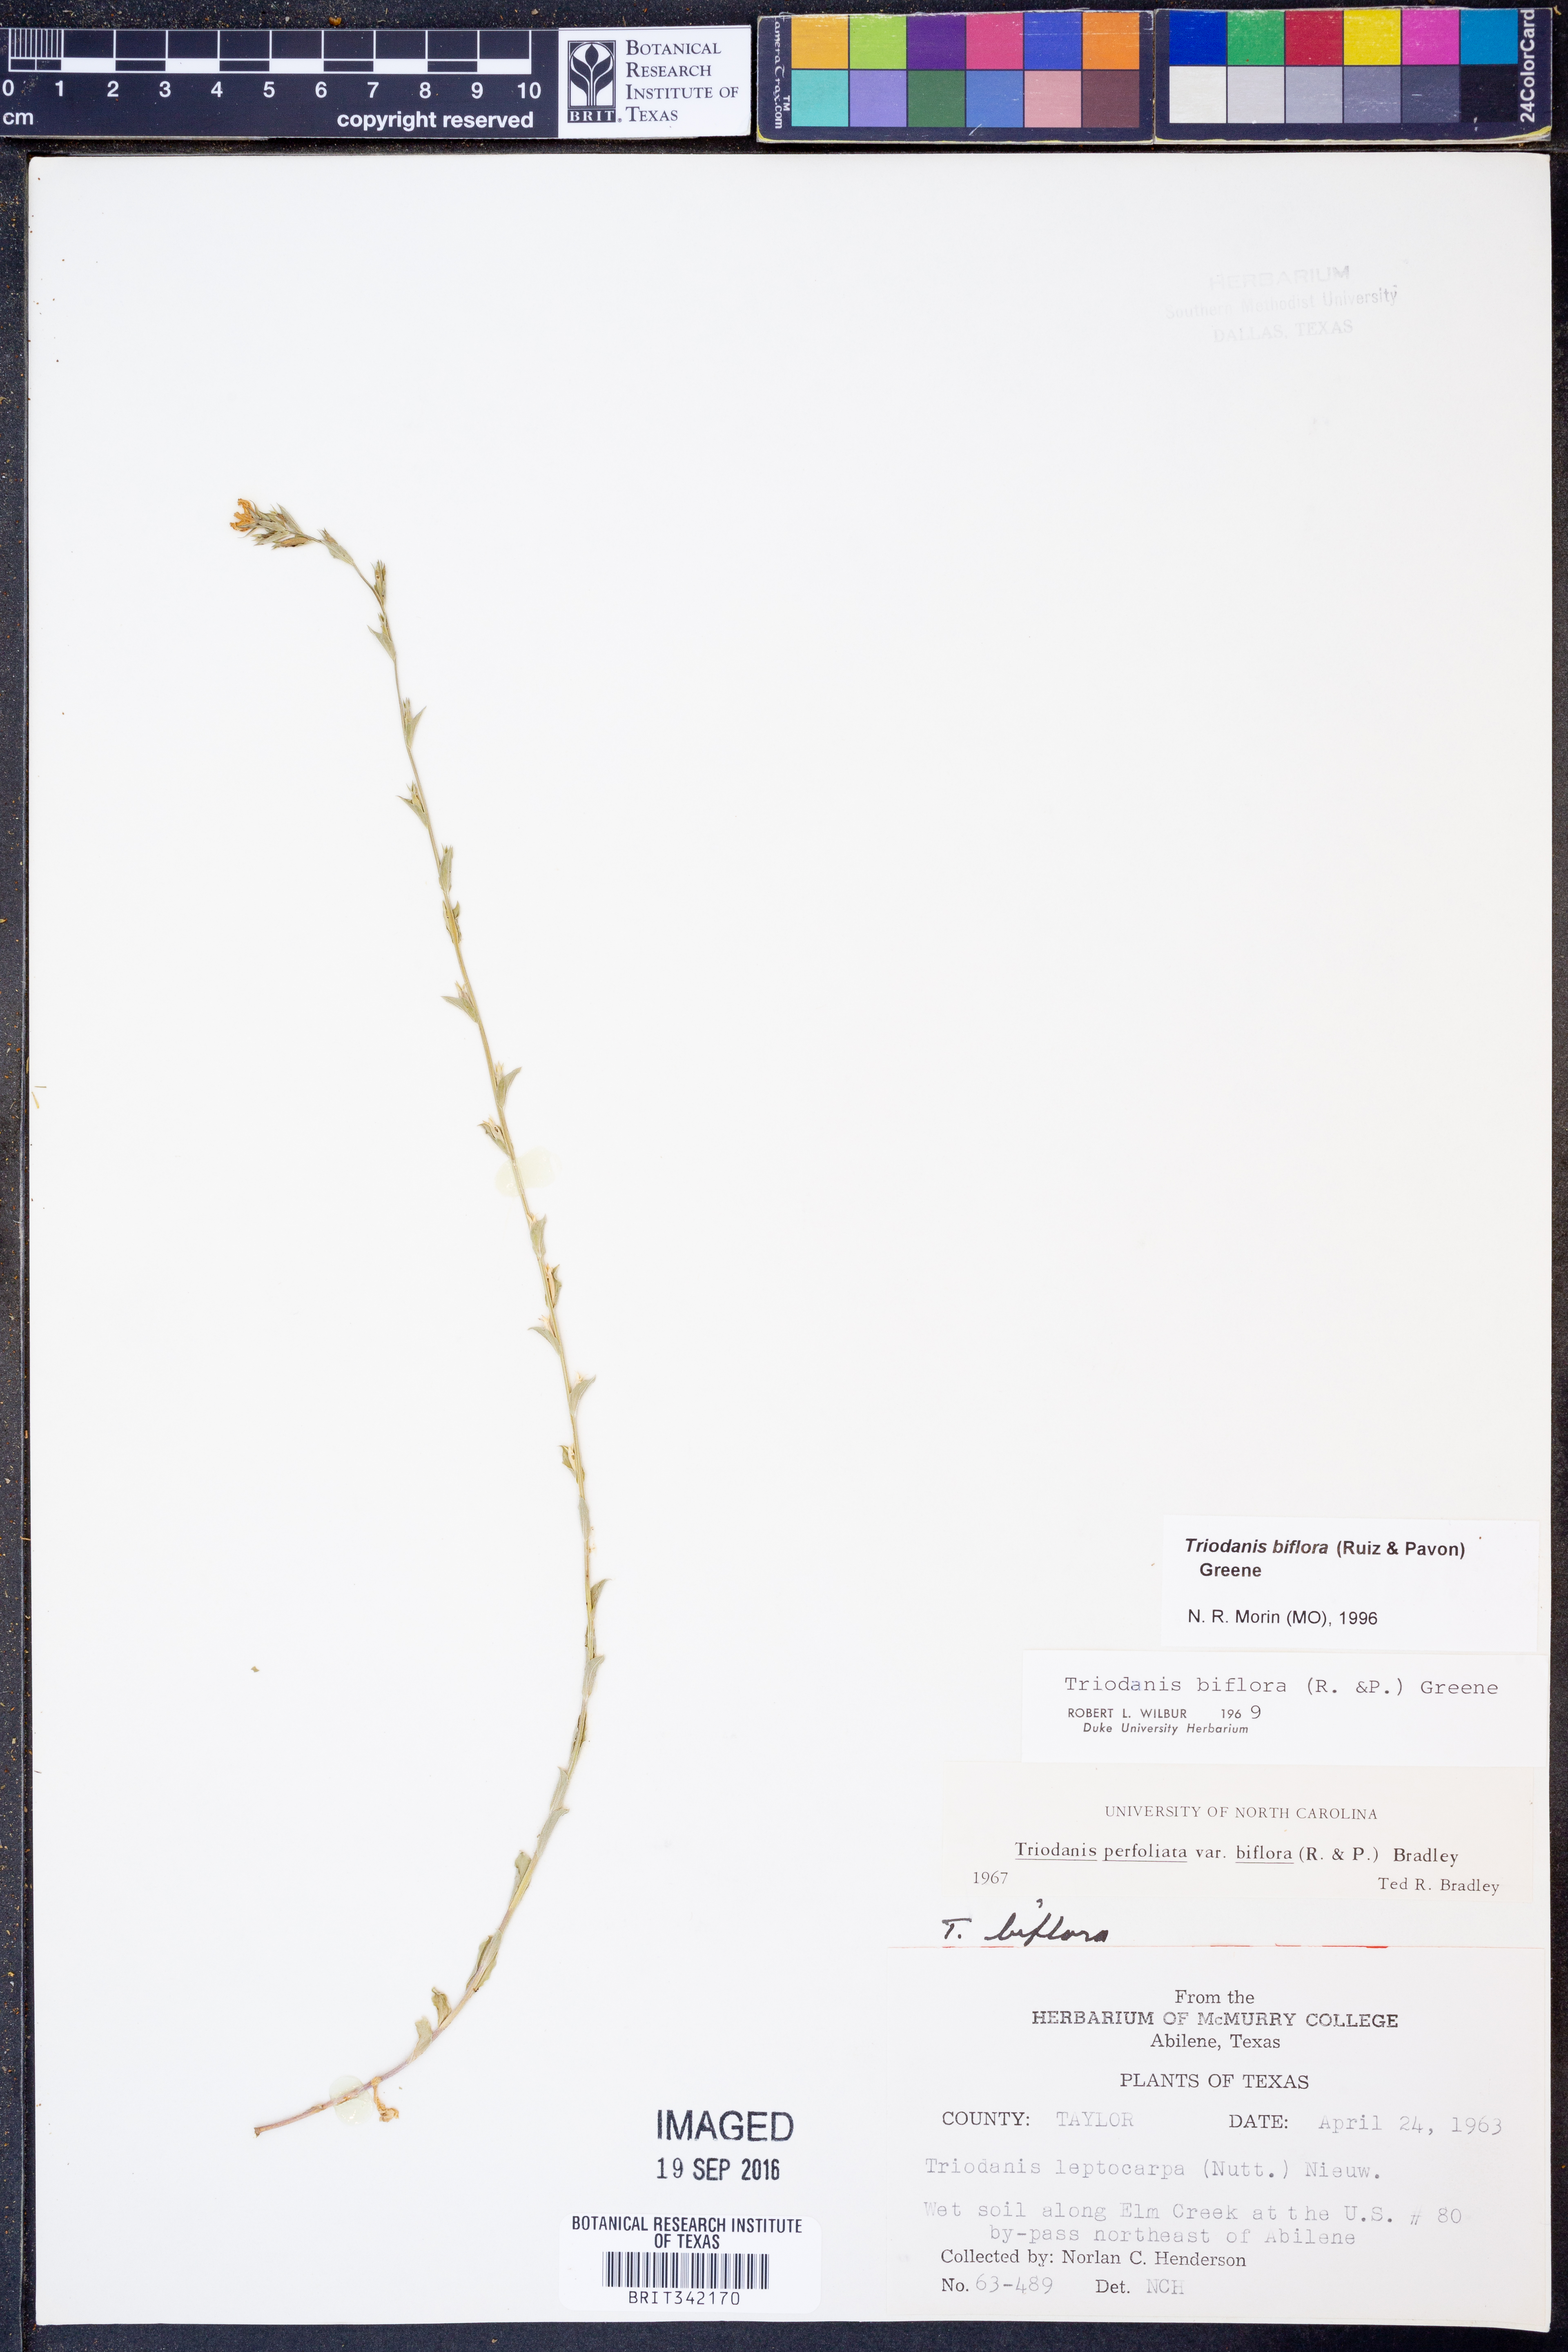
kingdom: Plantae
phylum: Tracheophyta
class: Magnoliopsida
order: Asterales
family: Campanulaceae
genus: Triodanis
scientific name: Triodanis perfoliata
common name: Clasping venus' looking-glass
